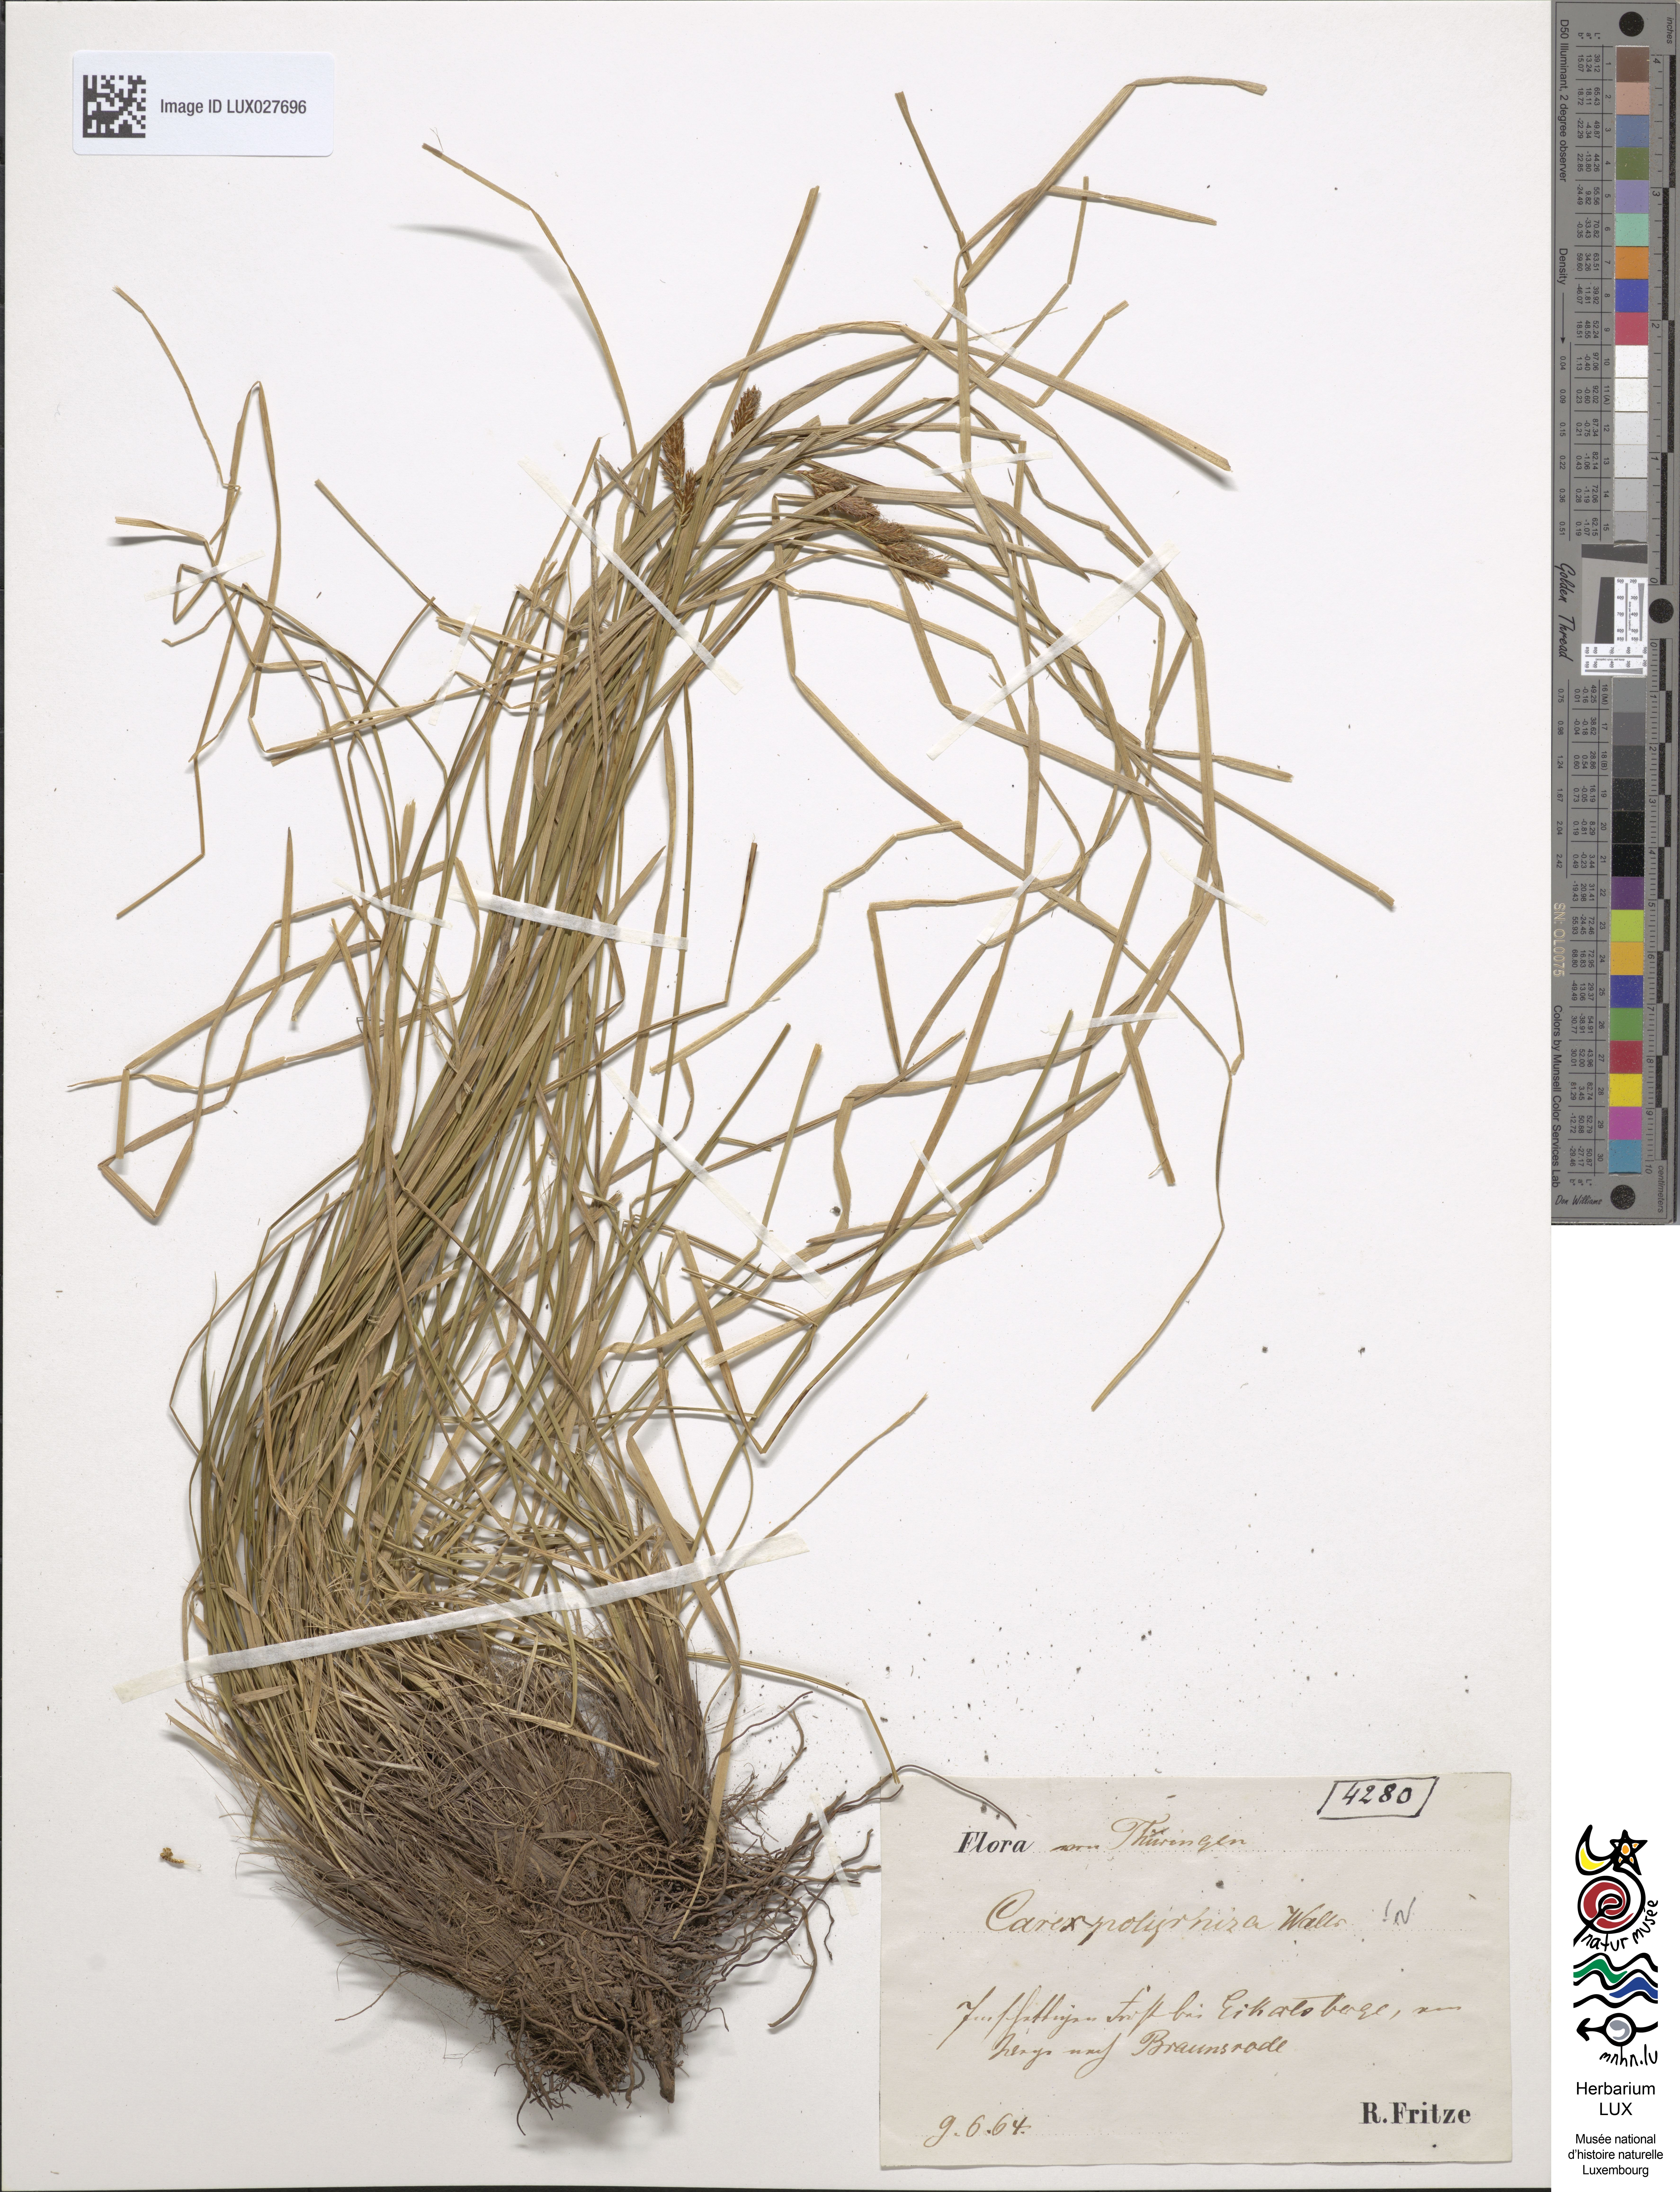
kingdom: Plantae
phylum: Tracheophyta
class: Liliopsida
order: Poales
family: Cyperaceae
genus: Carex
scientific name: Carex umbrosa
